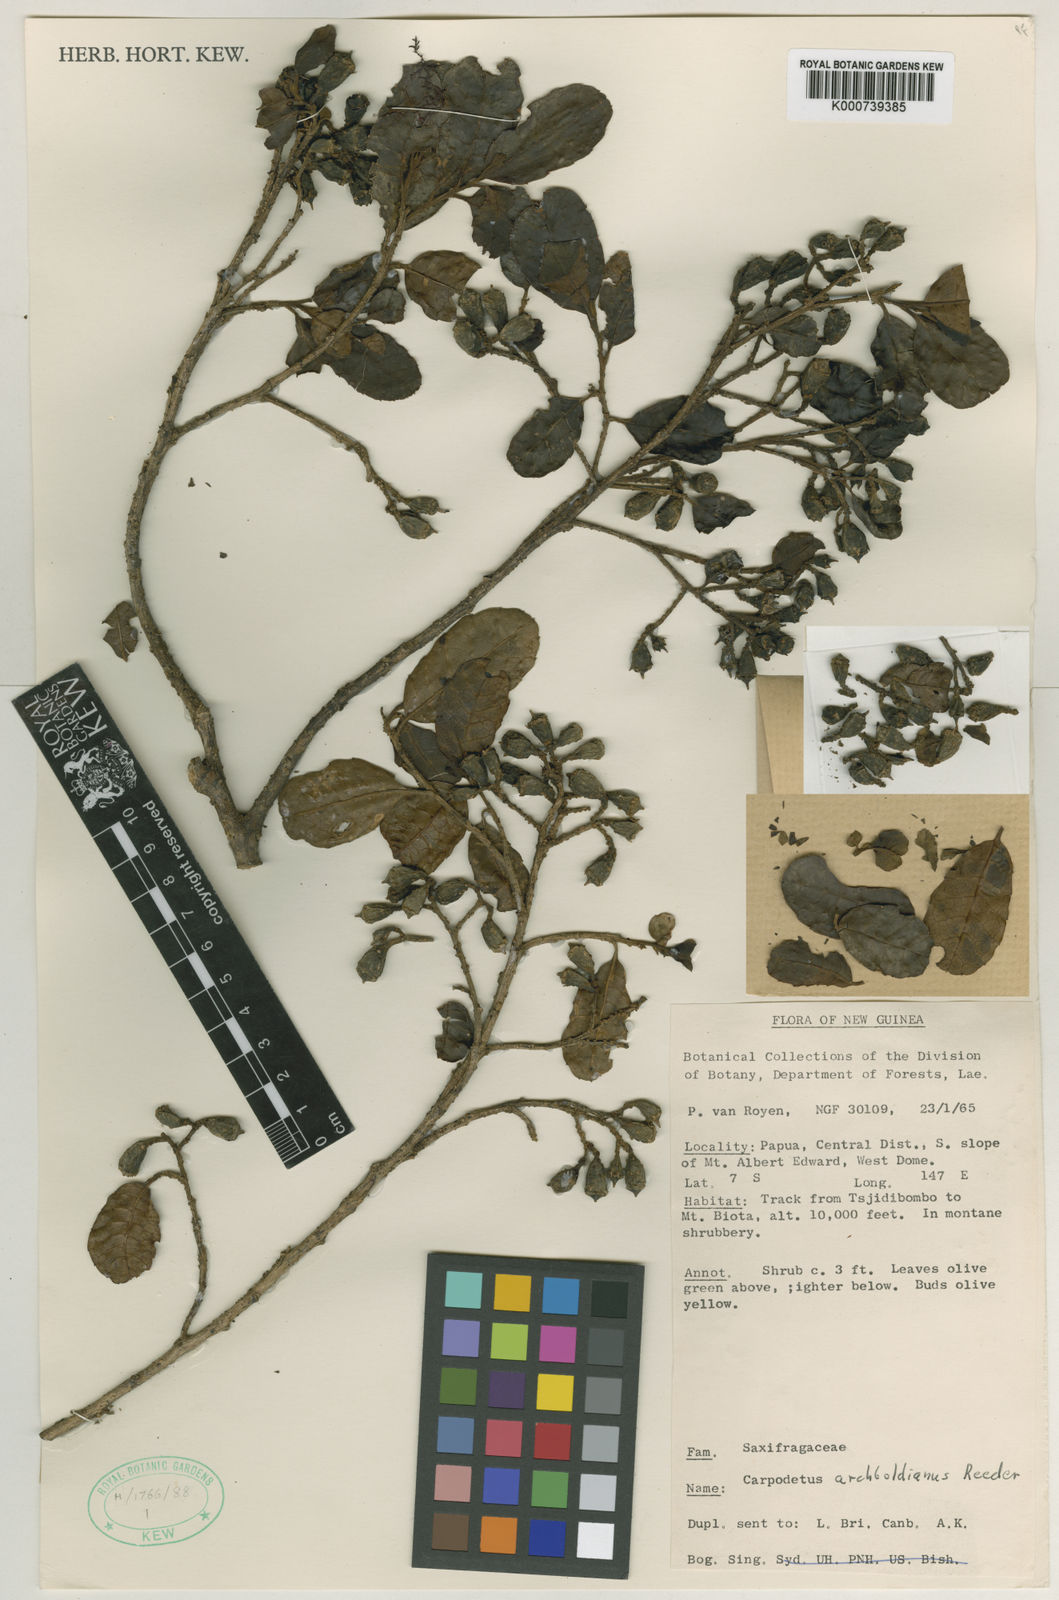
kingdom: Plantae
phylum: Tracheophyta
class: Magnoliopsida
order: Asterales
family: Rousseaceae
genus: Carpodetus
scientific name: Carpodetus arboreus
